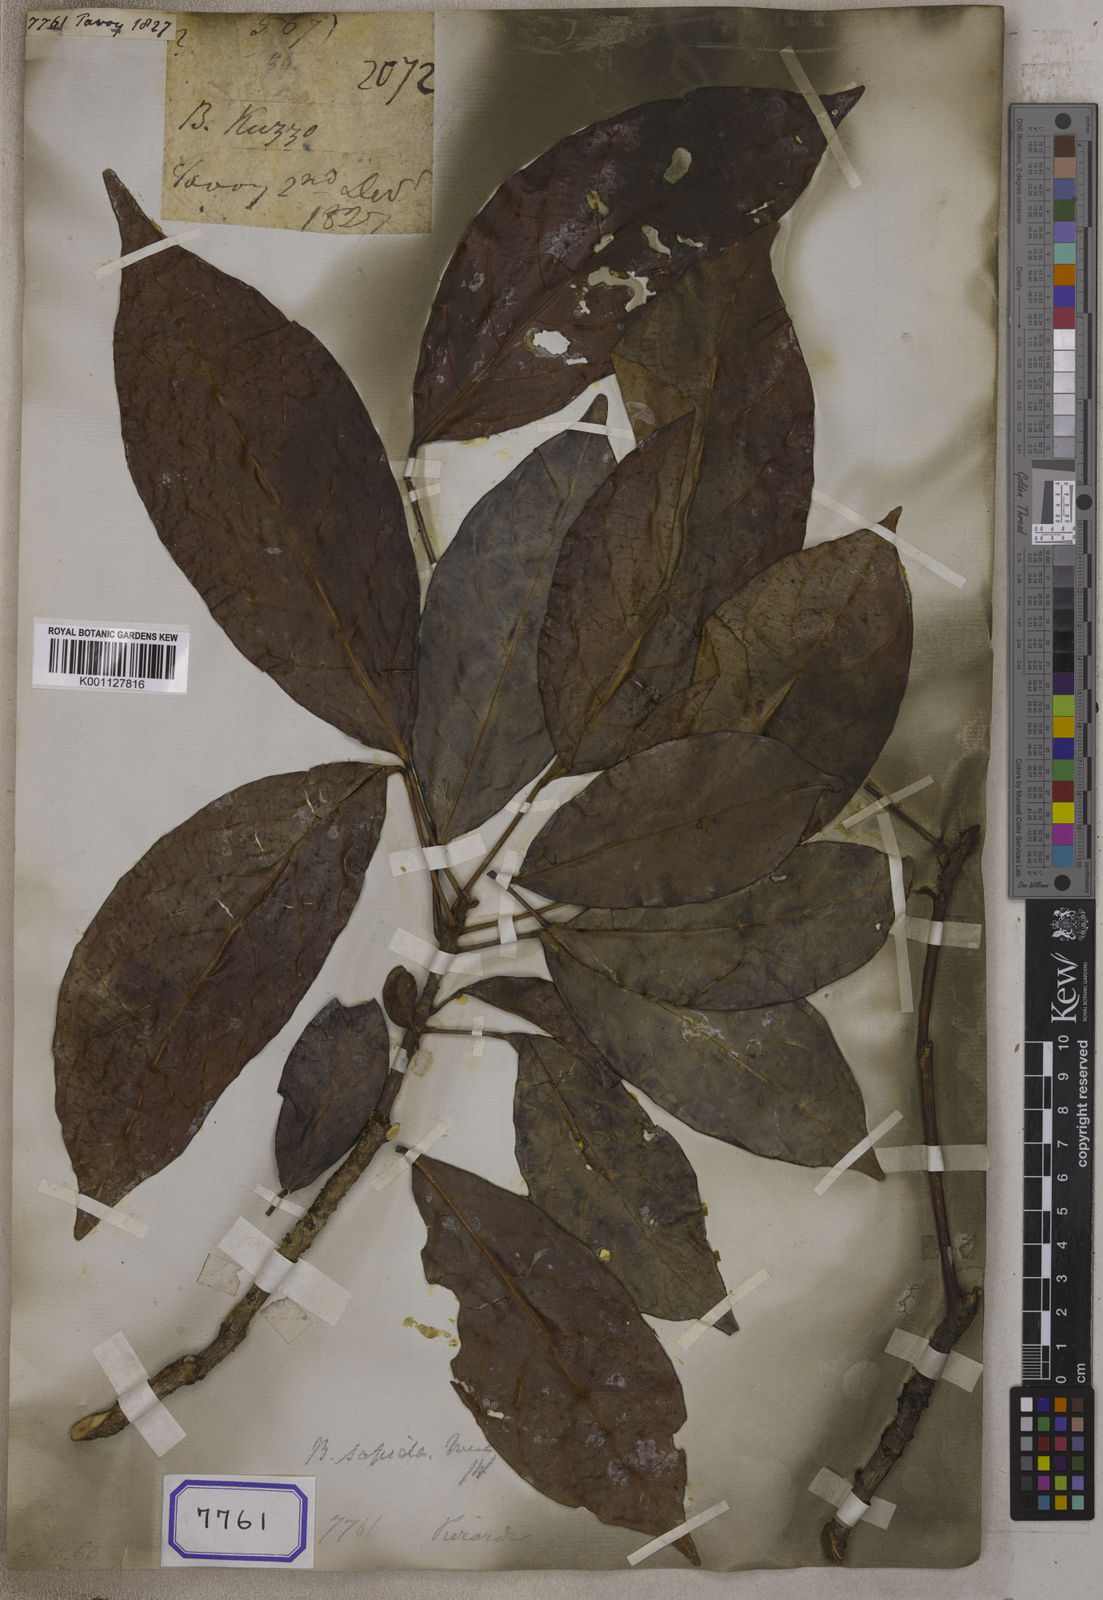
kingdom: Plantae
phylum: Tracheophyta
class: Magnoliopsida
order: Malpighiales
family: Euphorbiaceae
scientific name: Euphorbiaceae
